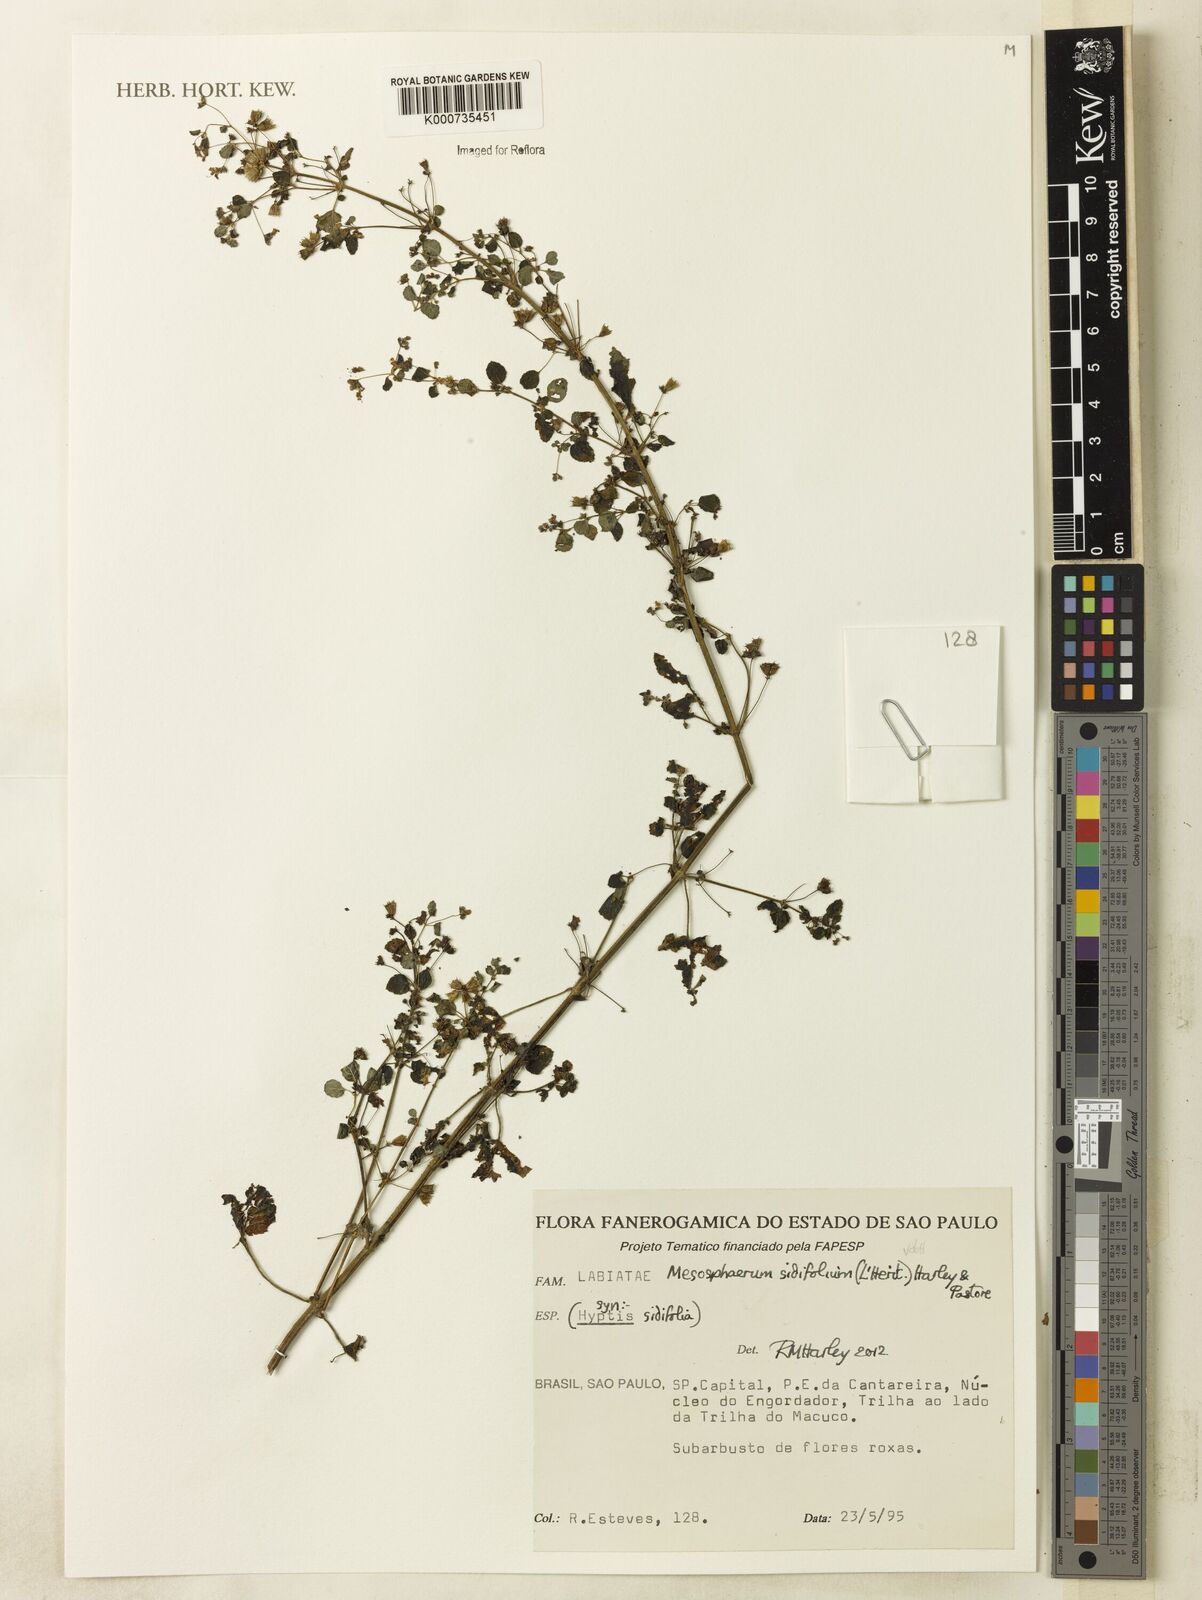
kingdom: Plantae
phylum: Tracheophyta
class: Magnoliopsida
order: Lamiales
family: Lamiaceae
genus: Mesosphaerum
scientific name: Mesosphaerum sidifolium
